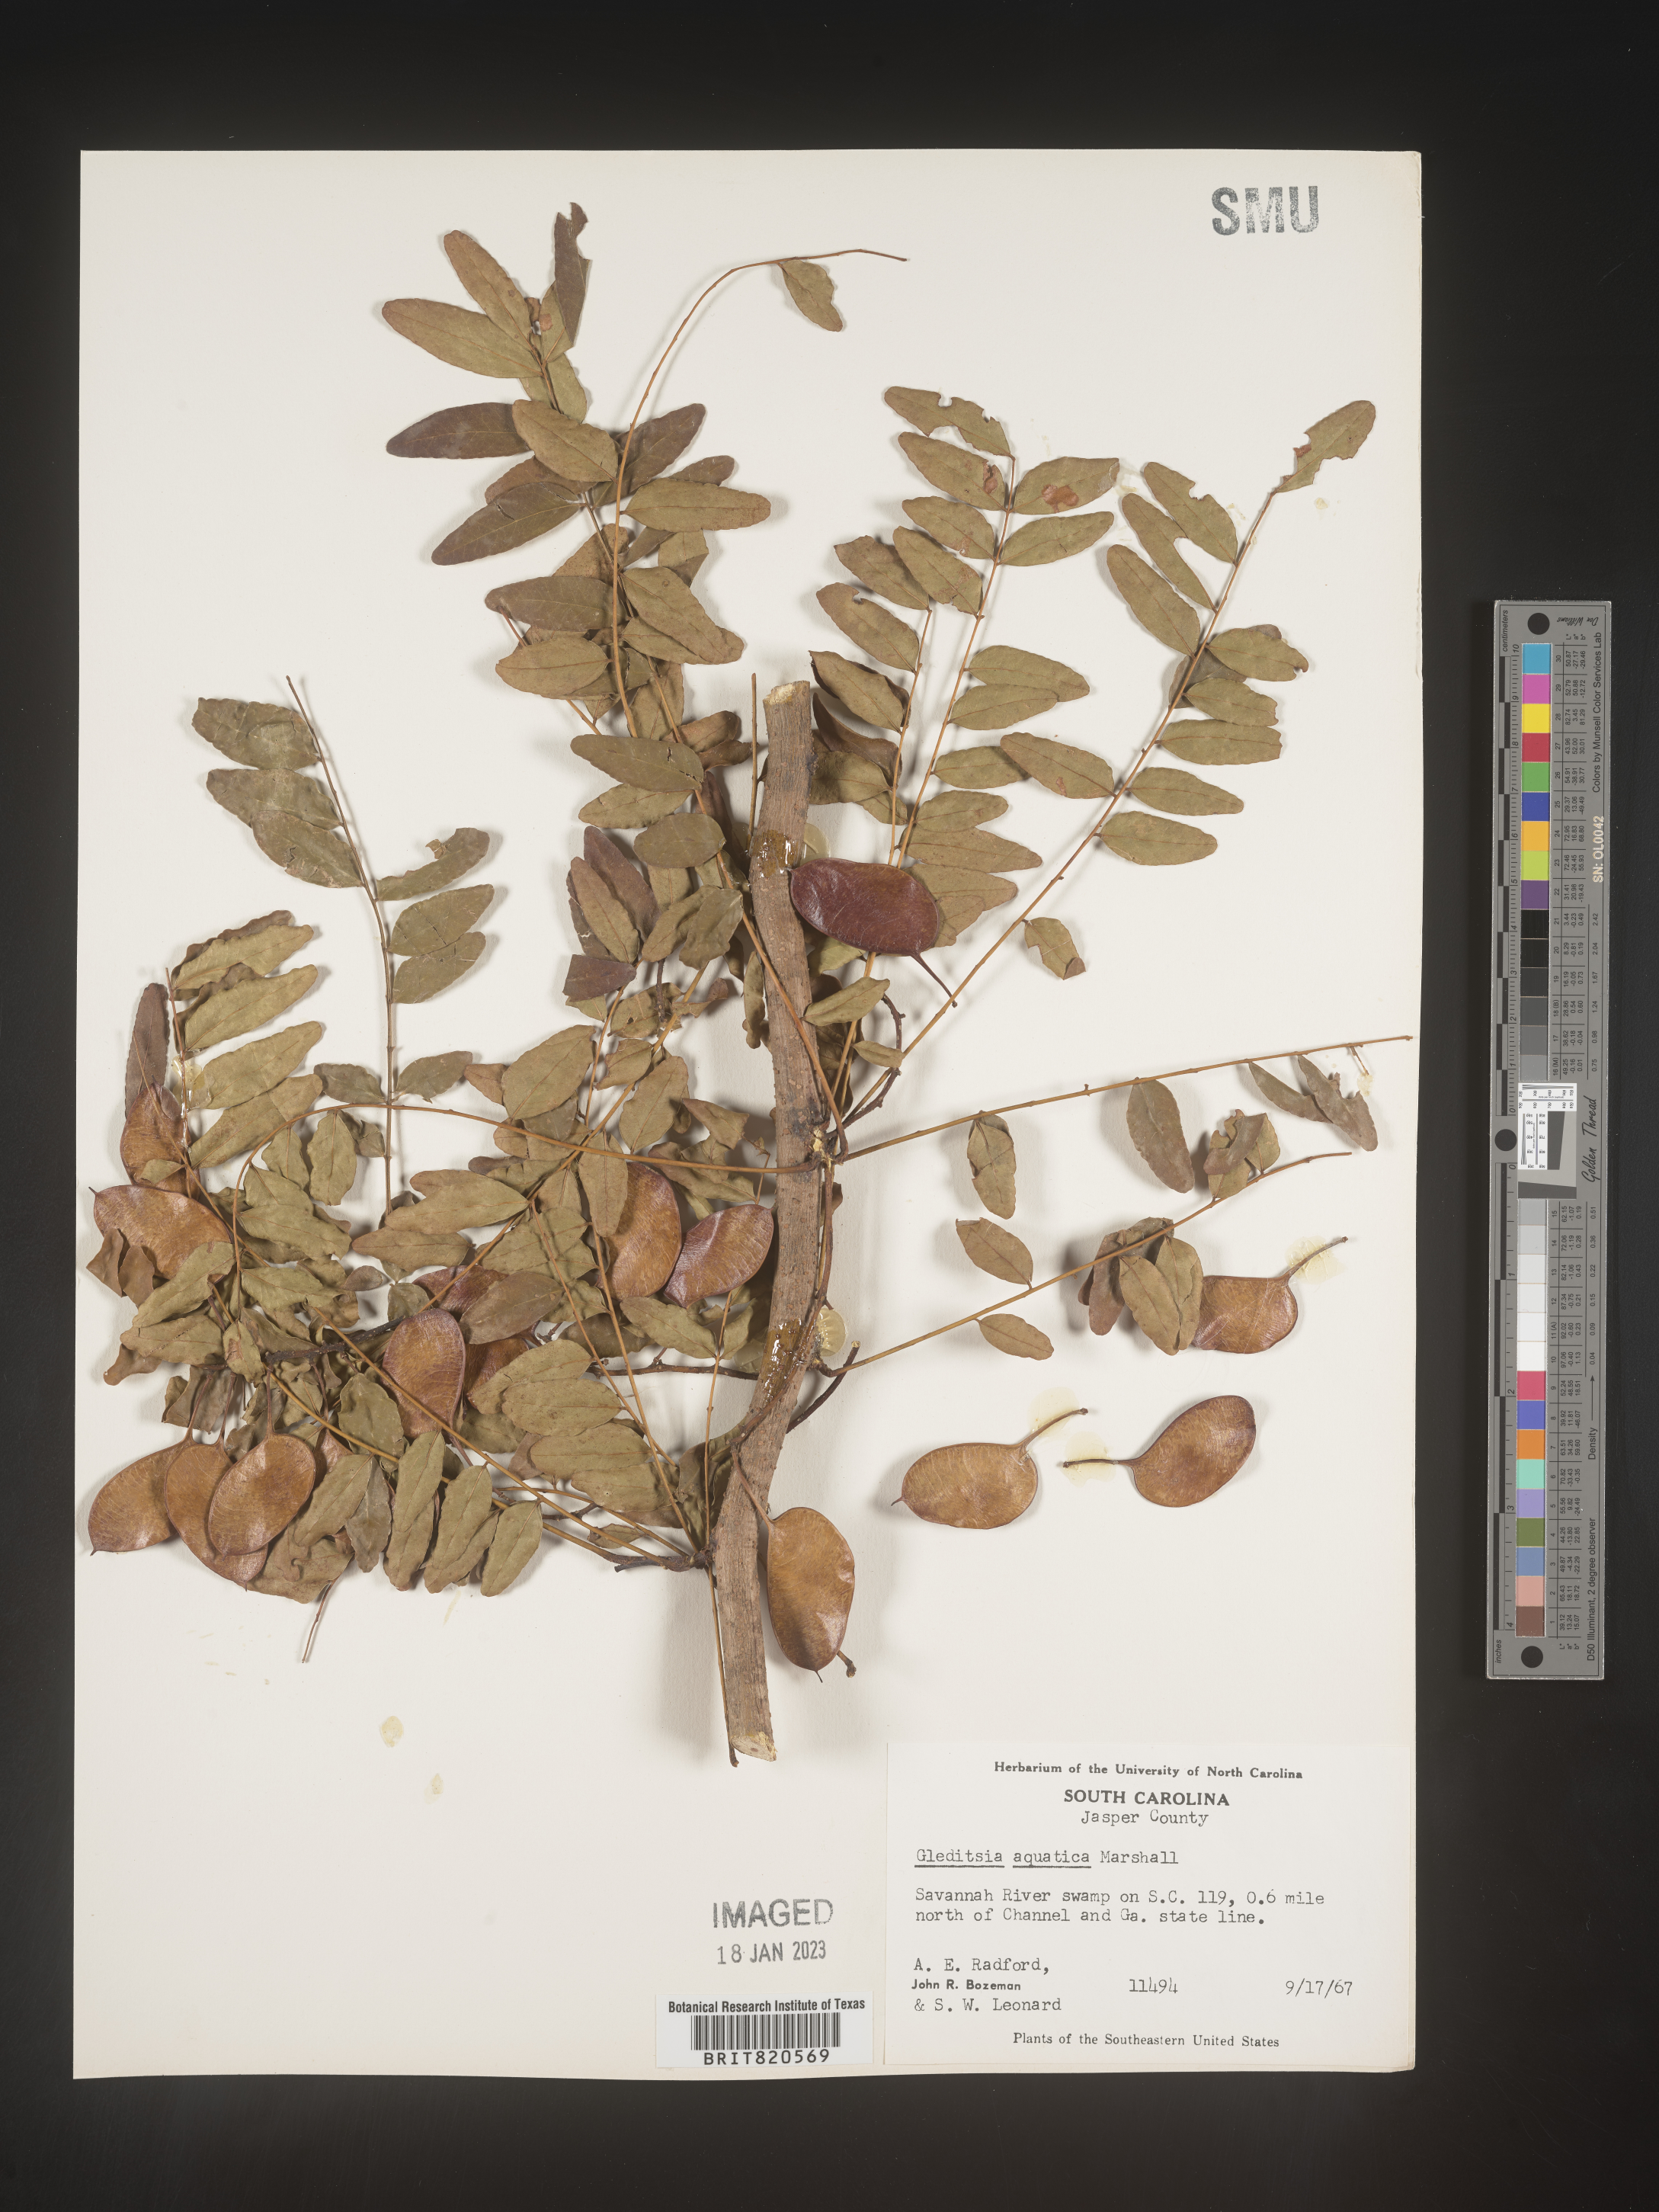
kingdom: Plantae
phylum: Tracheophyta
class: Magnoliopsida
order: Fabales
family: Fabaceae
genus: Gleditsia
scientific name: Gleditsia aquatica
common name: Swamp-locust
